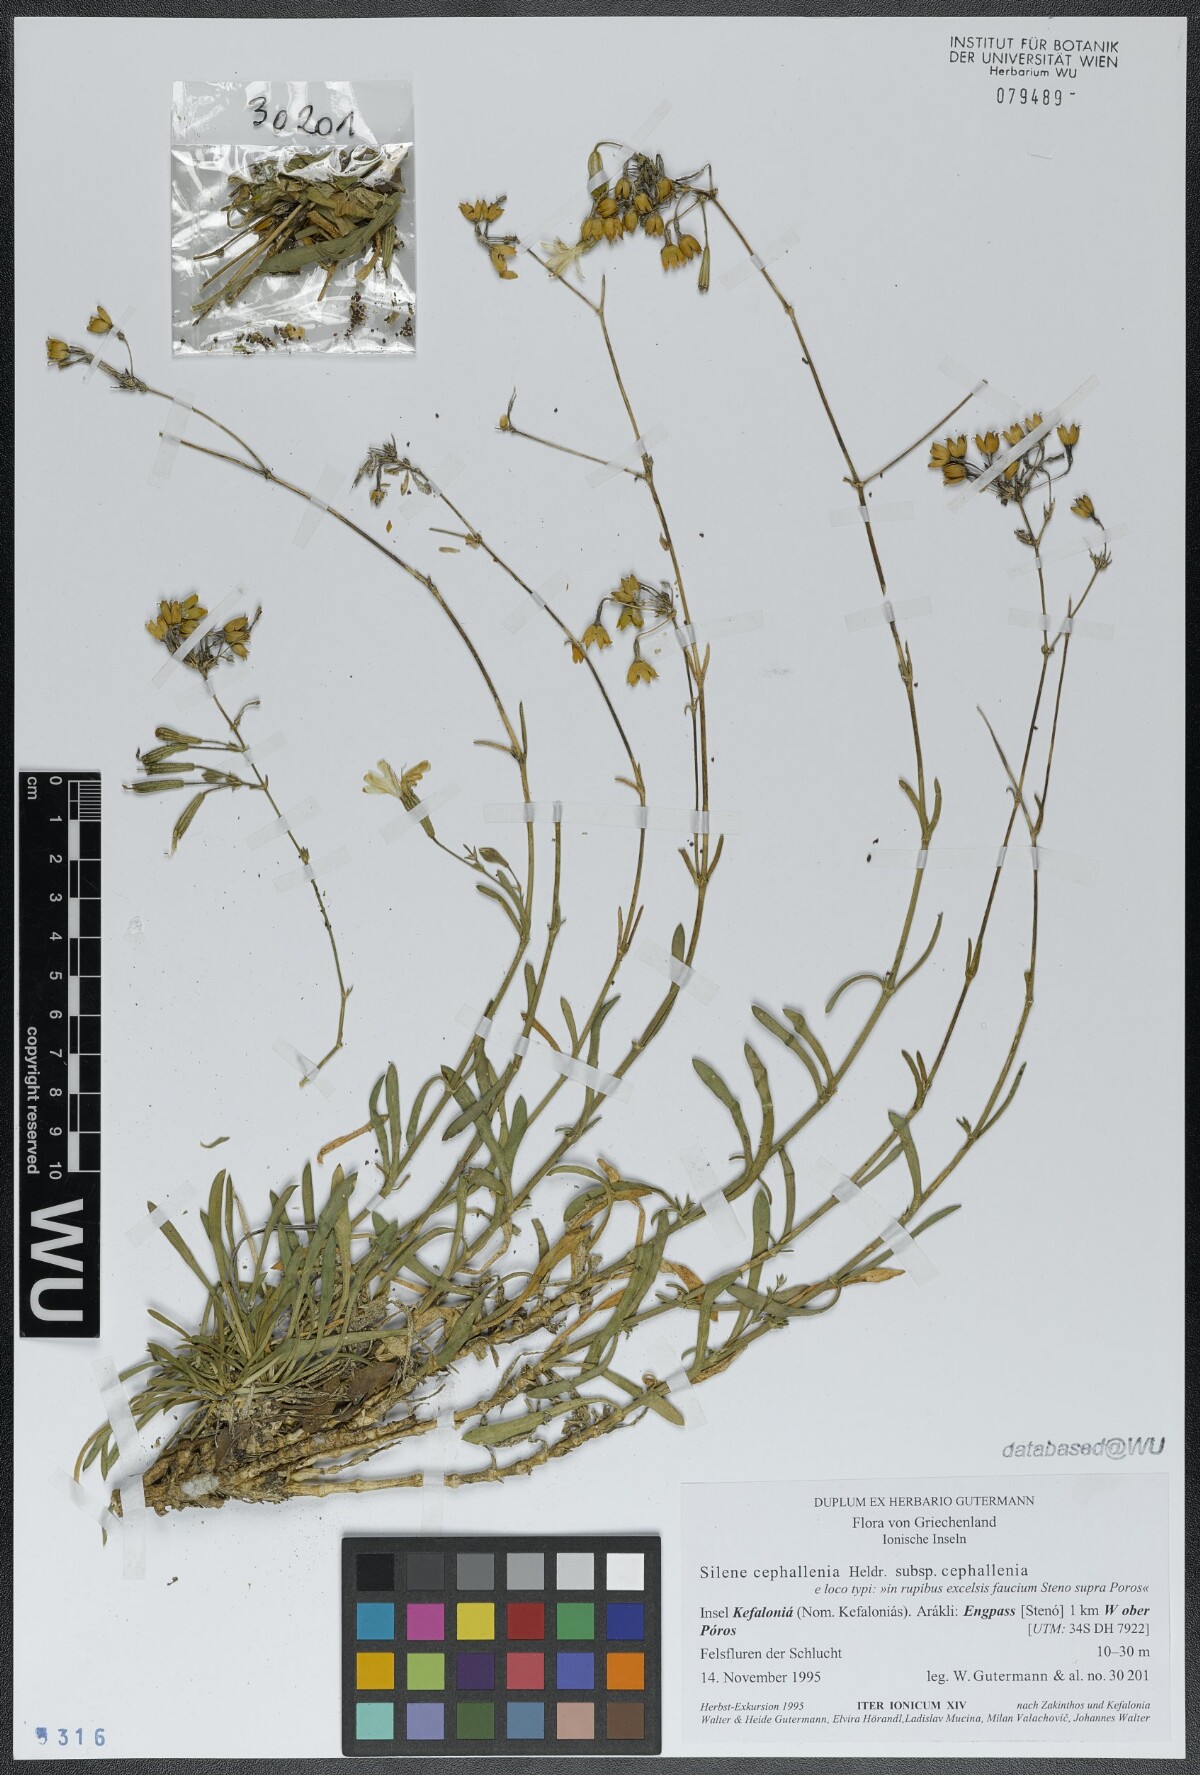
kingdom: Plantae
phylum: Tracheophyta
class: Magnoliopsida
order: Caryophyllales
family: Caryophyllaceae
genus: Silene
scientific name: Silene cephallenia
